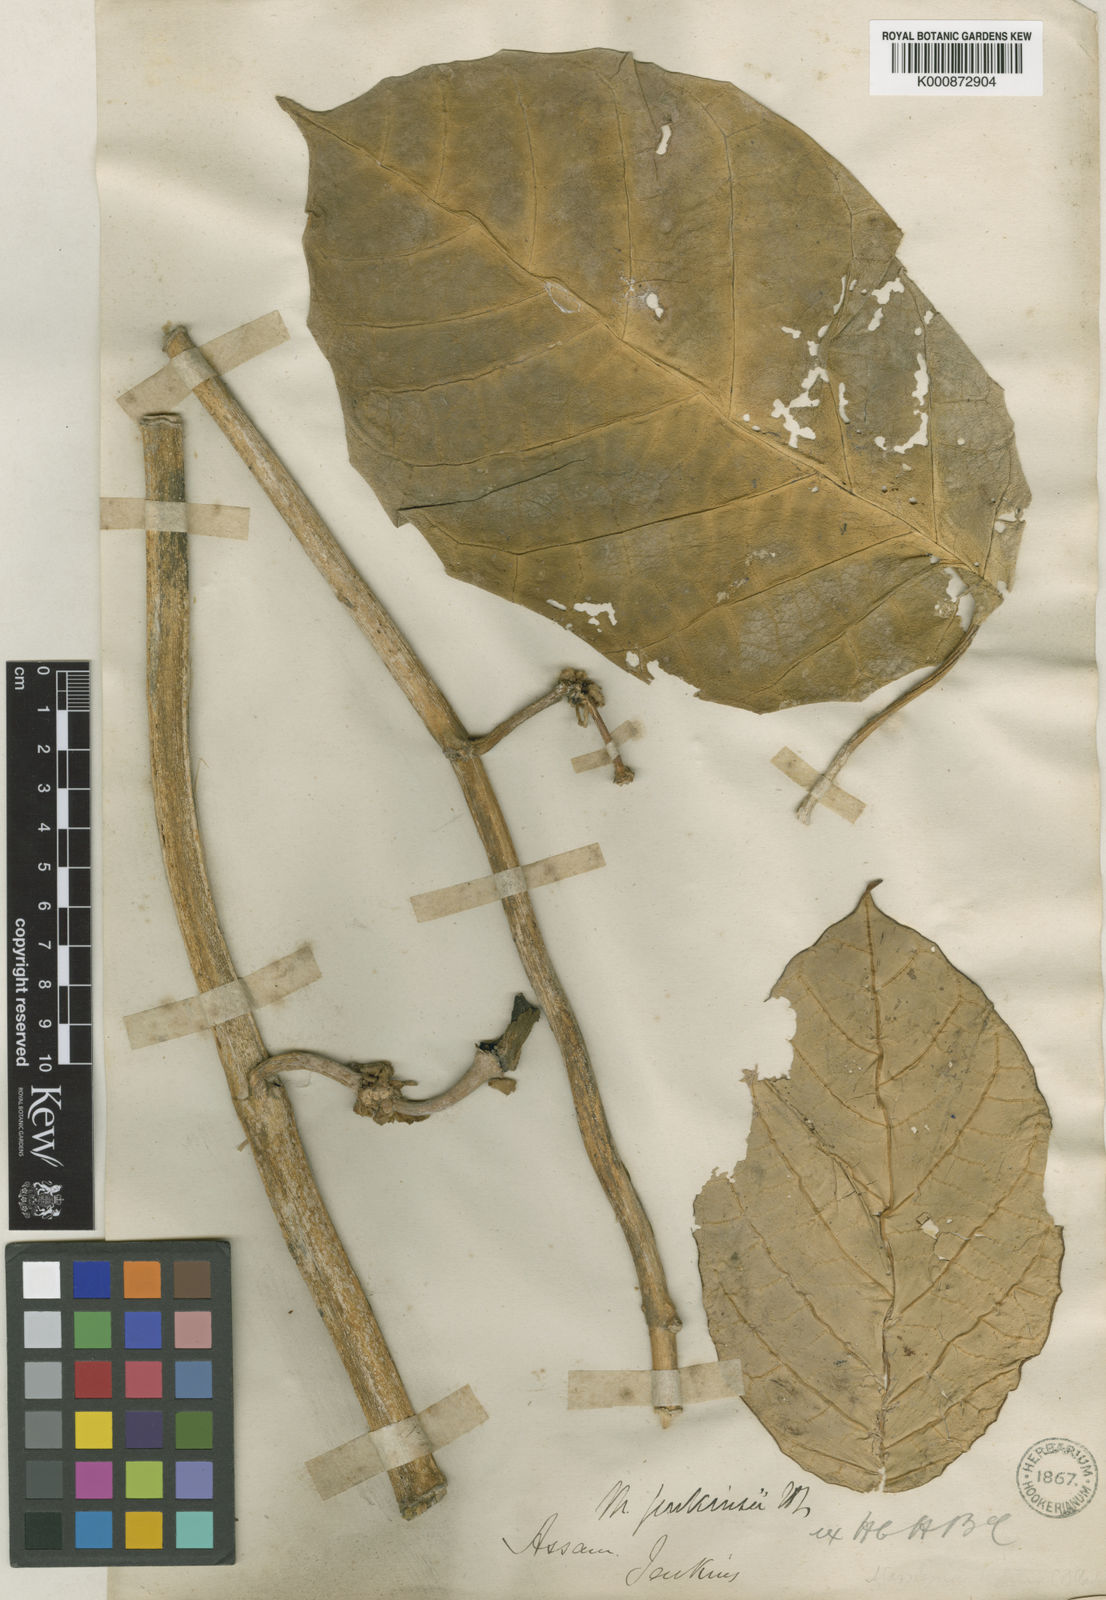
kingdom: Plantae
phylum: Tracheophyta
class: Magnoliopsida
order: Gentianales
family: Apocynaceae
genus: Sinomarsdenia
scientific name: Sinomarsdenia jenkinsii
